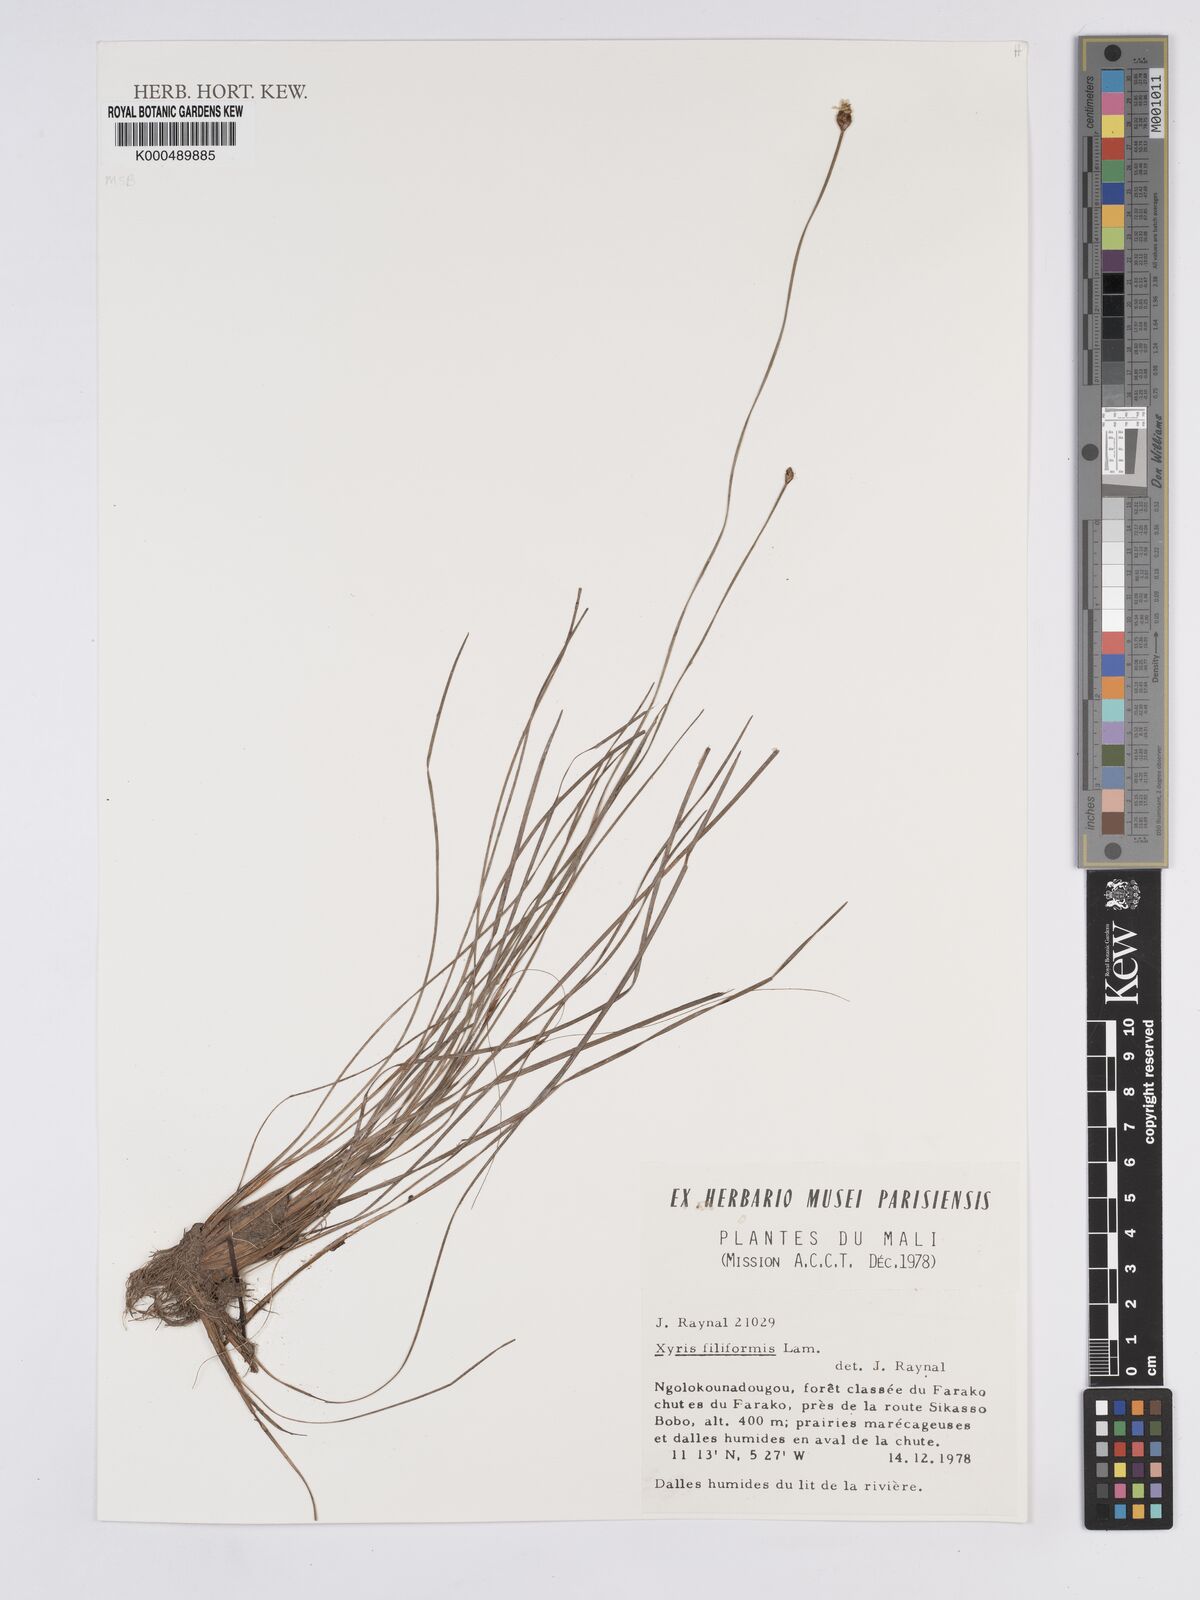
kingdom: Plantae
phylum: Tracheophyta
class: Liliopsida
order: Poales
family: Xyridaceae
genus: Xyris
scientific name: Xyris filiformis
